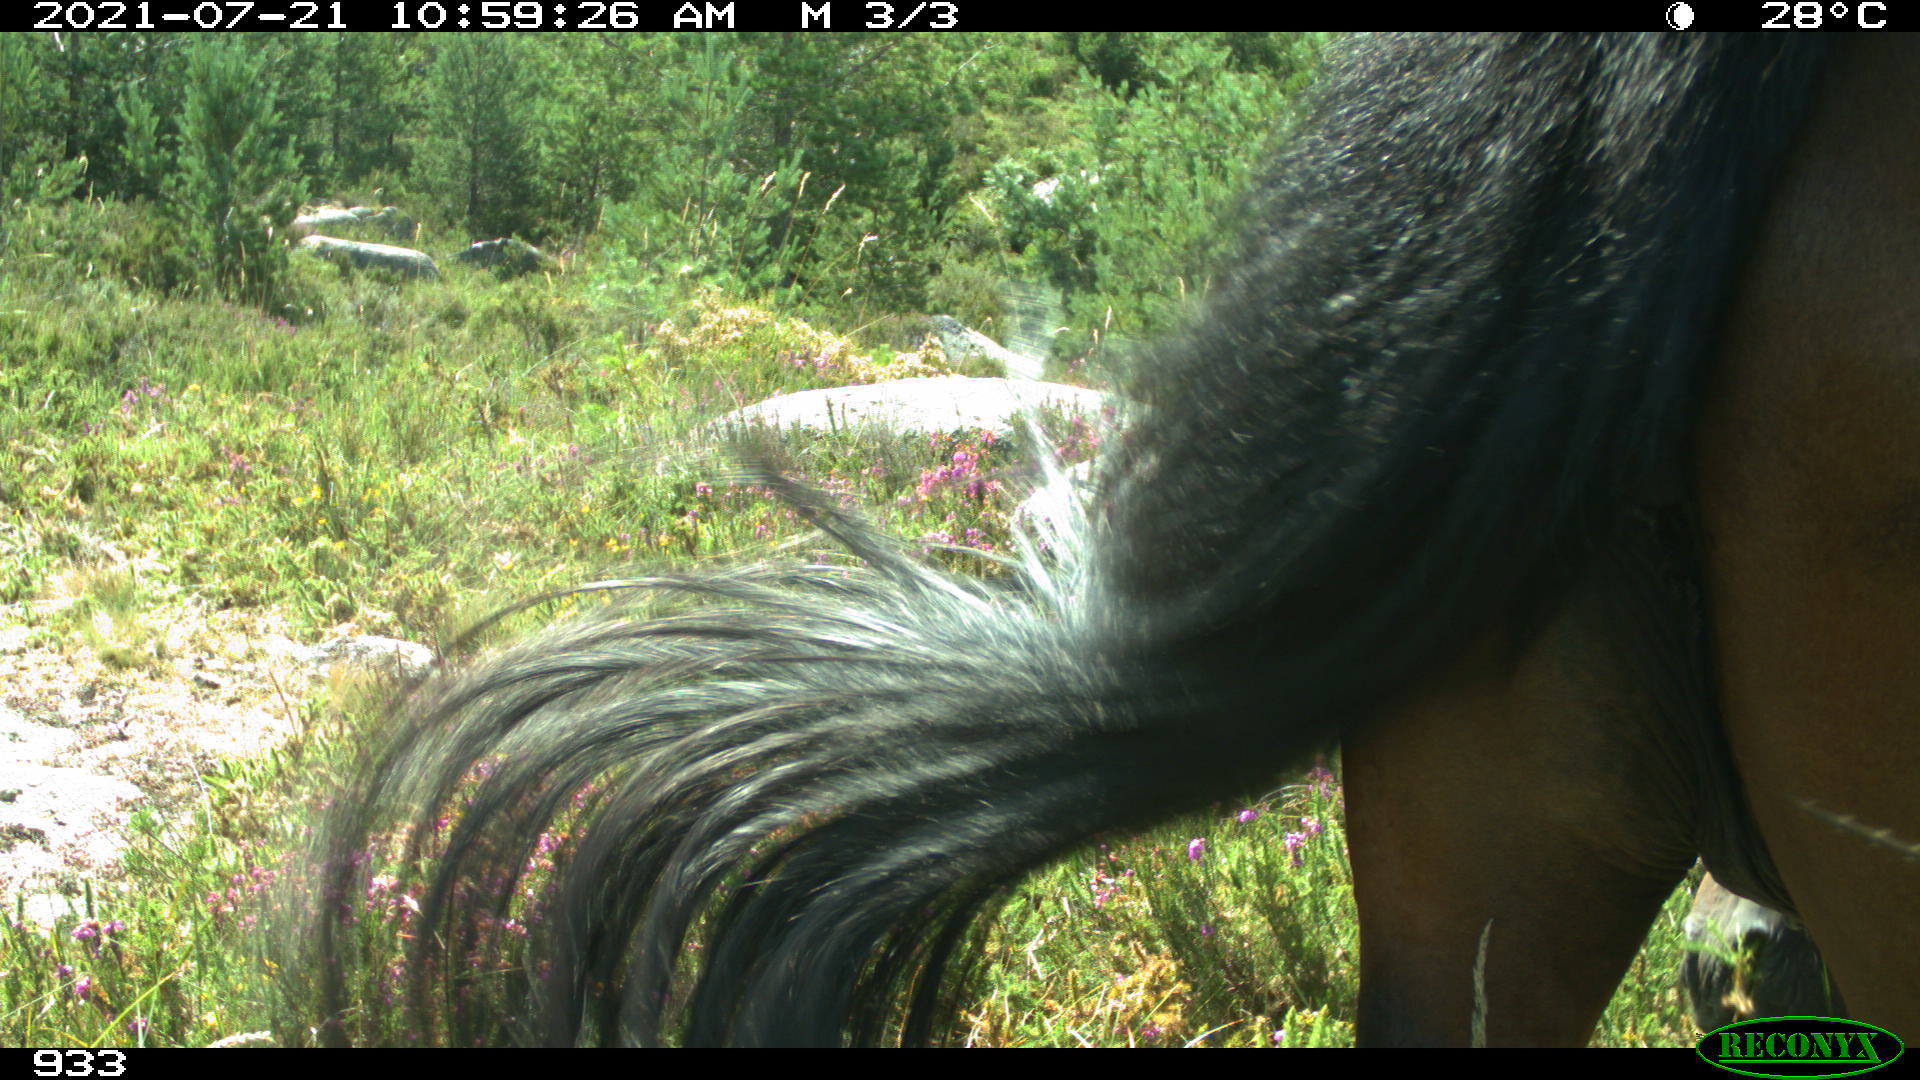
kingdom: Animalia
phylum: Chordata
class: Mammalia
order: Perissodactyla
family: Equidae
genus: Equus
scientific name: Equus caballus
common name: Horse
